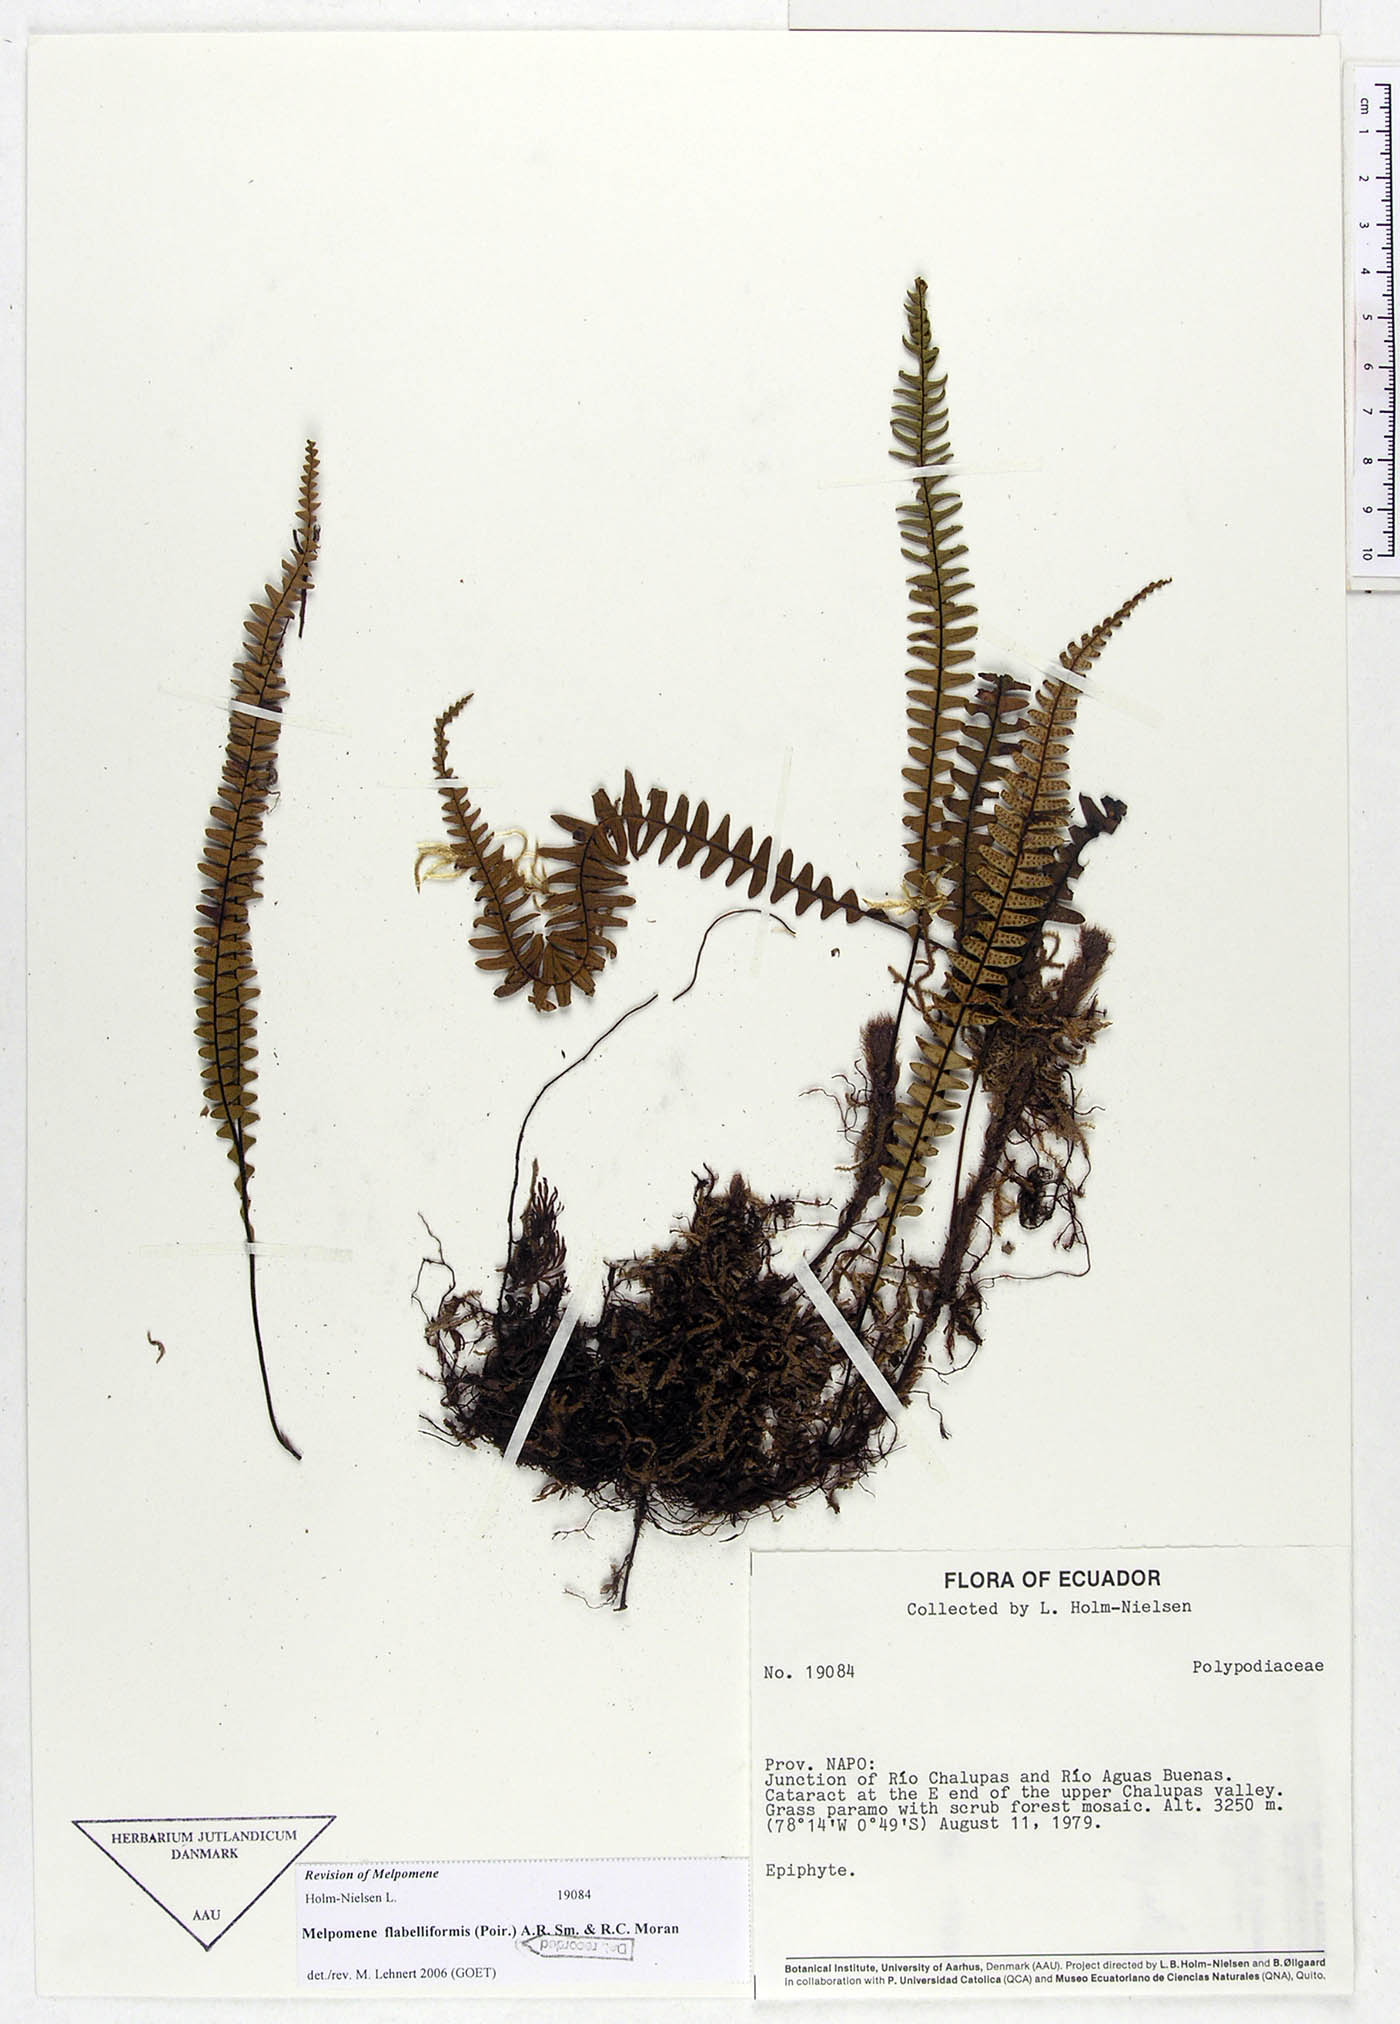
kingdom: Plantae
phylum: Tracheophyta
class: Polypodiopsida
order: Polypodiales
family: Polypodiaceae
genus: Melpomene
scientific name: Melpomene flabelliformis
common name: Fanleaf dwarf polypody
